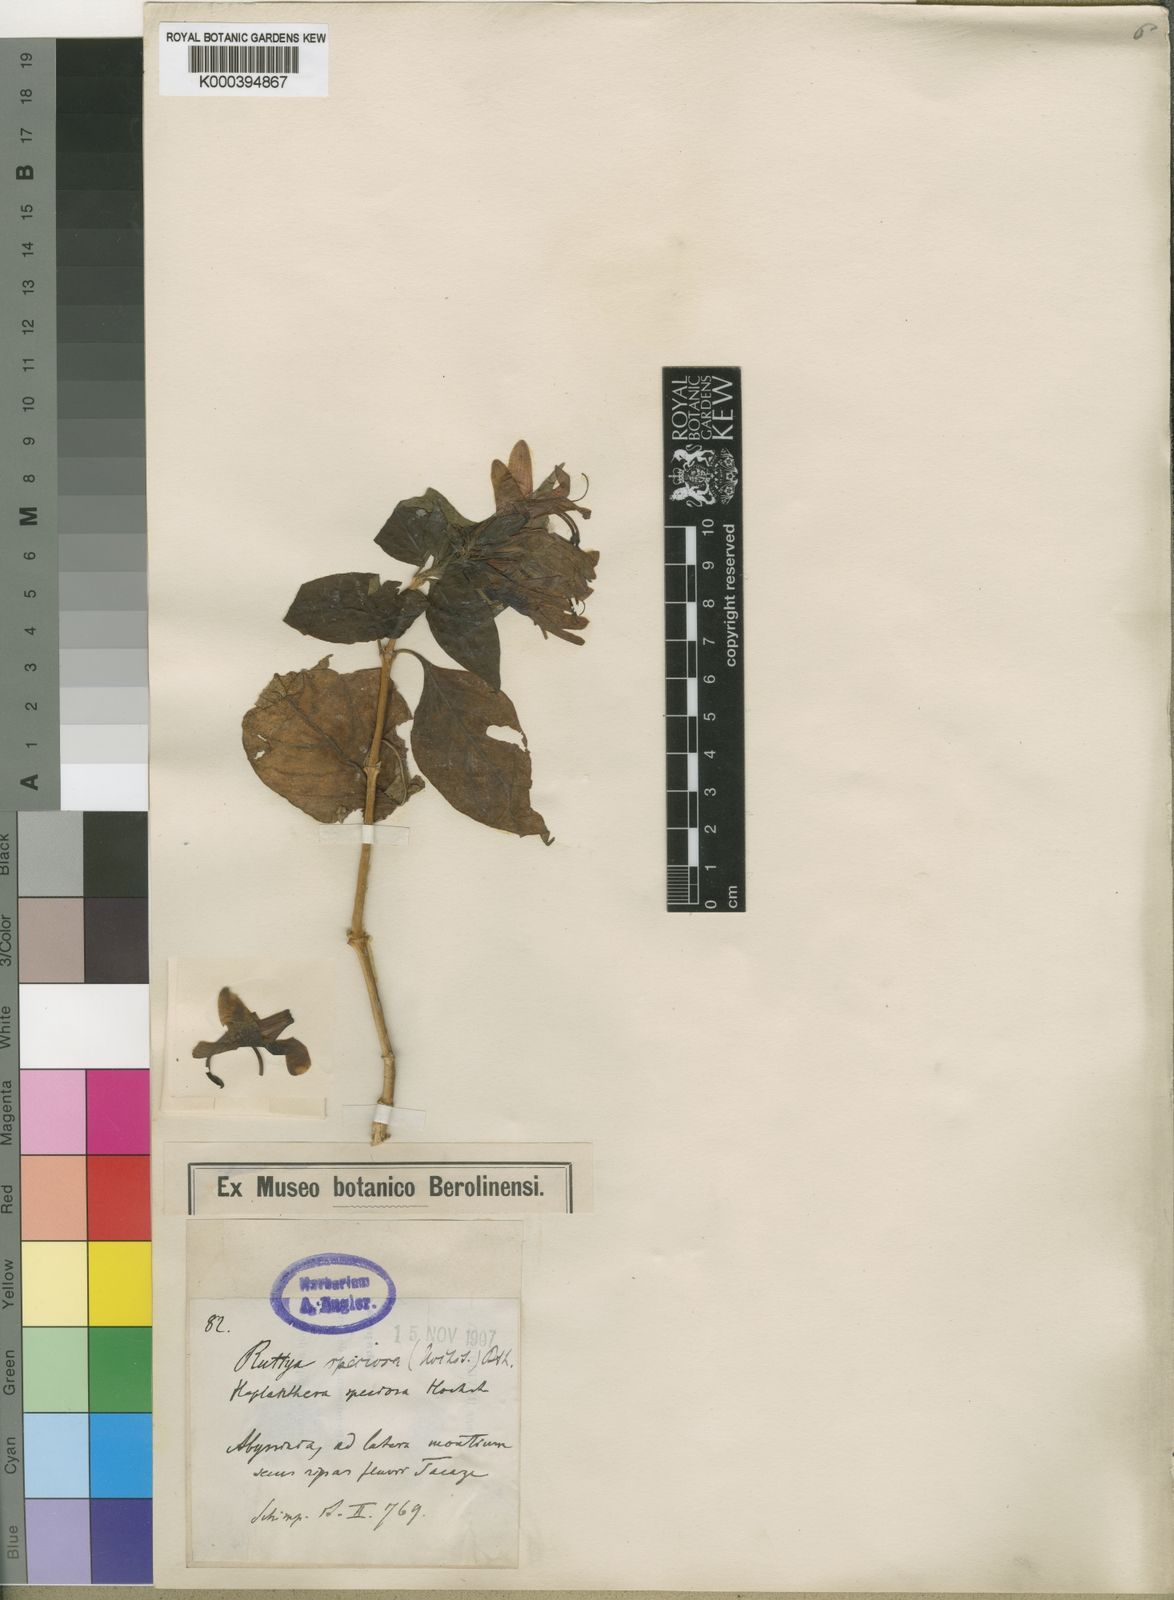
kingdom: Plantae
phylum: Tracheophyta
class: Magnoliopsida
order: Lamiales
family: Acanthaceae
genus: Ruttya
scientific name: Ruttya speciosa
